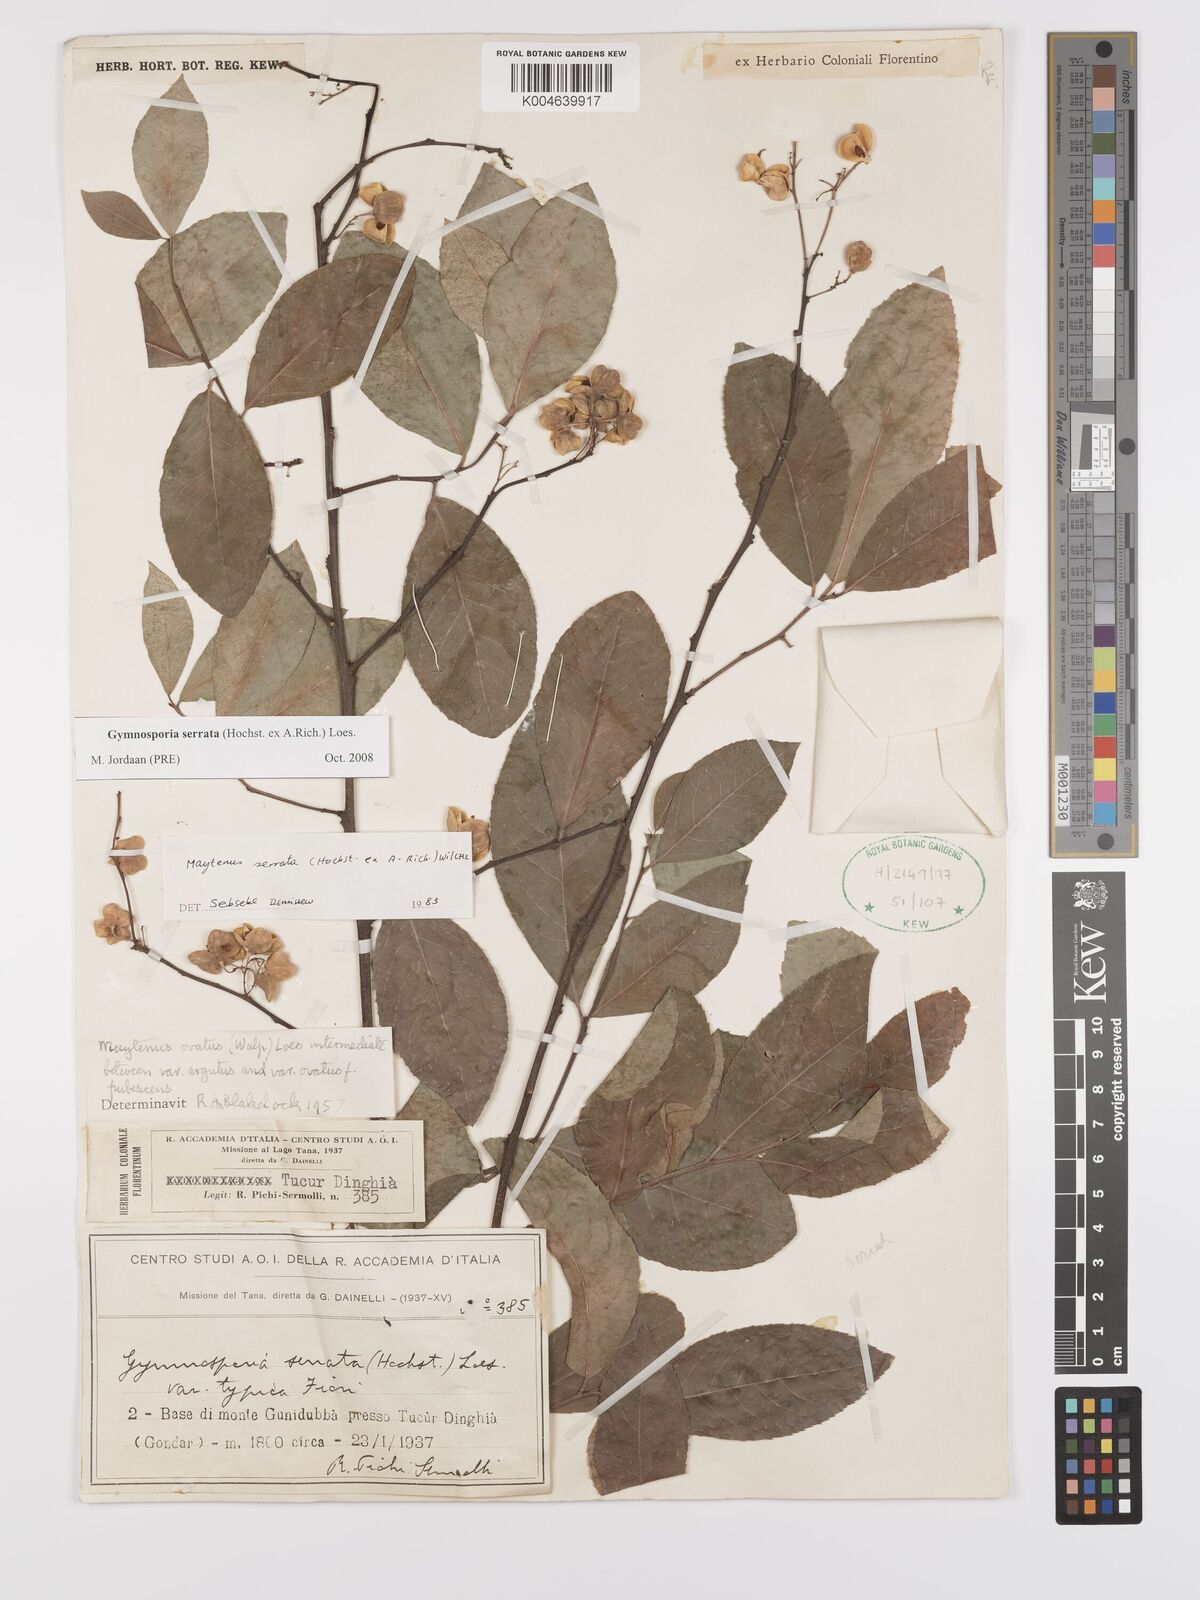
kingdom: Plantae
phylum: Tracheophyta
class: Magnoliopsida
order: Celastrales
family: Celastraceae
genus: Gymnosporia
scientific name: Gymnosporia serrata
